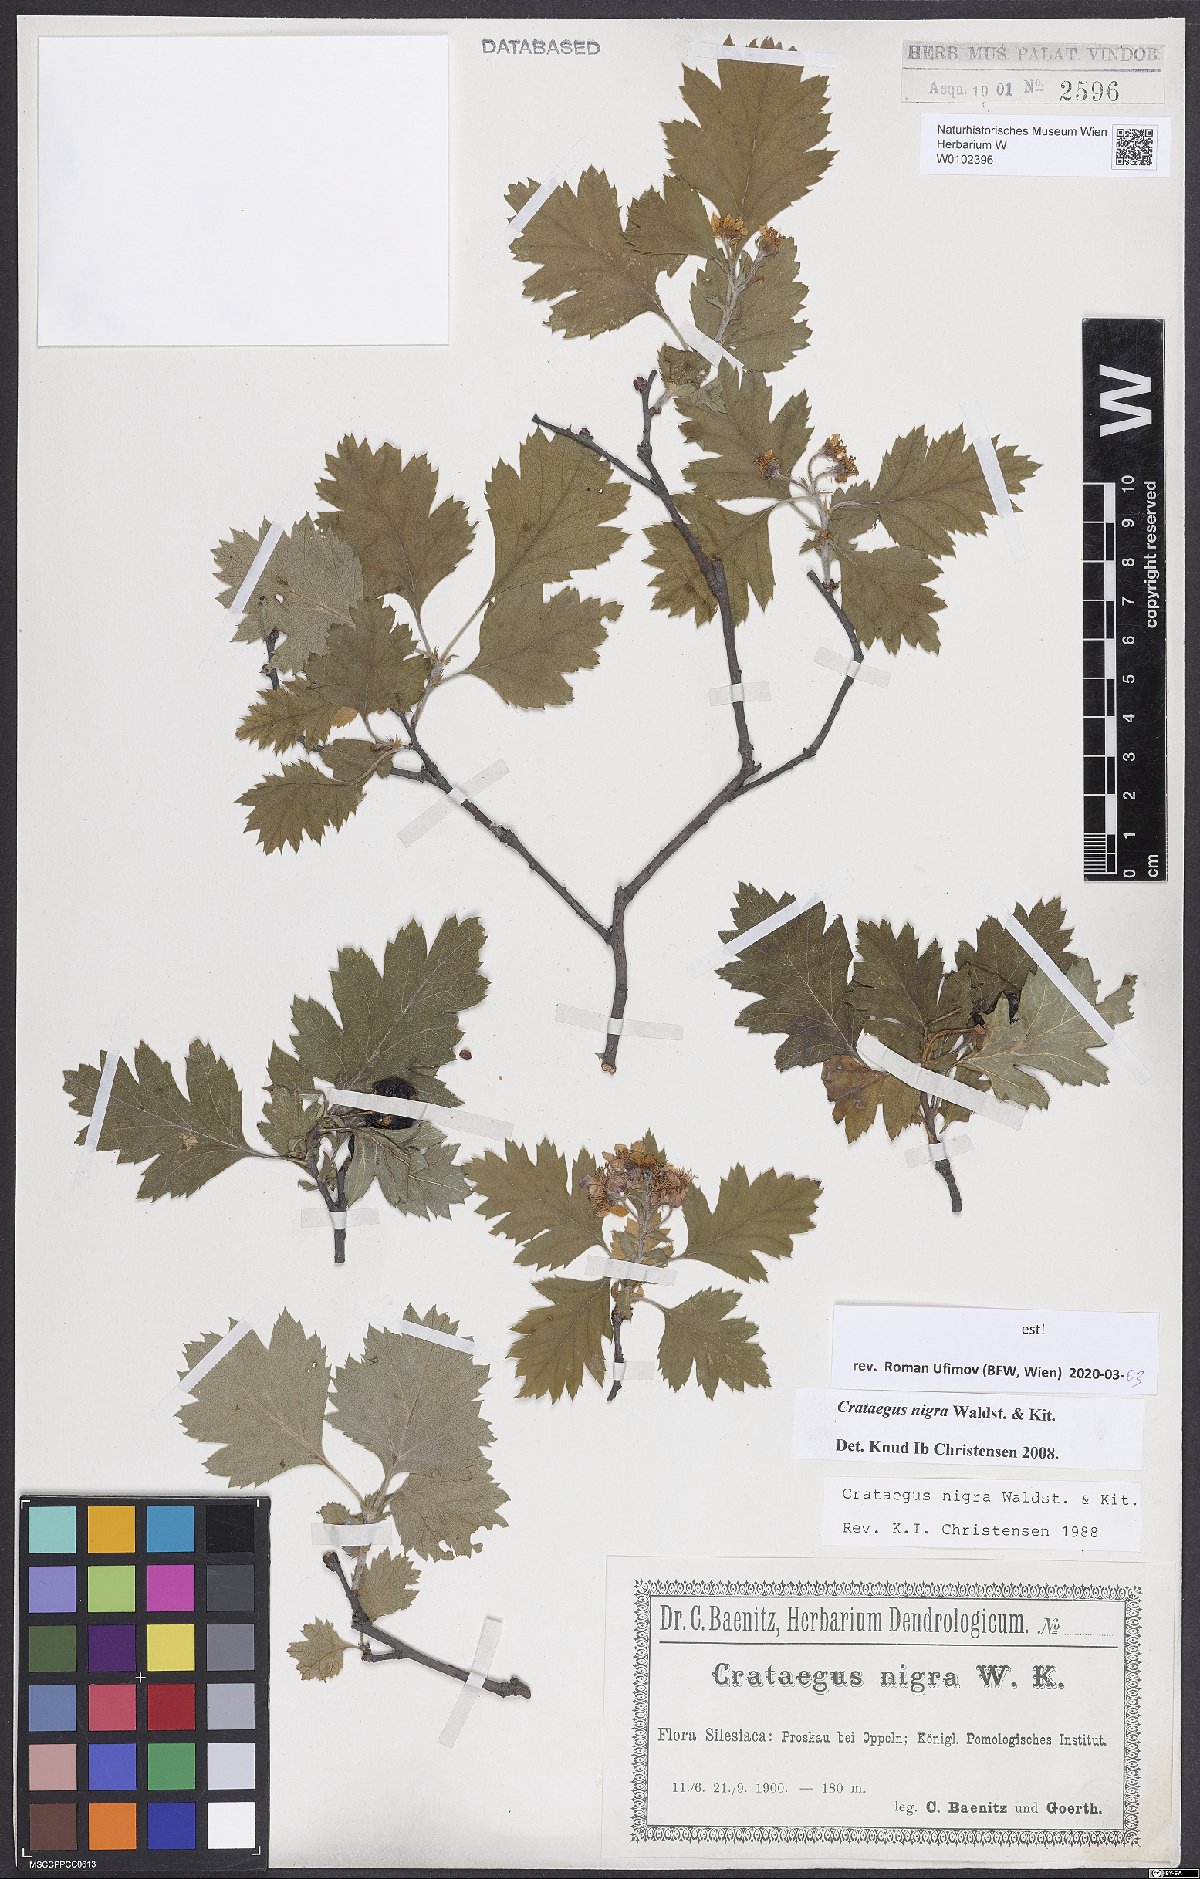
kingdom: Plantae
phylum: Tracheophyta
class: Magnoliopsida
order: Rosales
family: Rosaceae
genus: Crataegus
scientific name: Crataegus nigra
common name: Hungarian thorn
